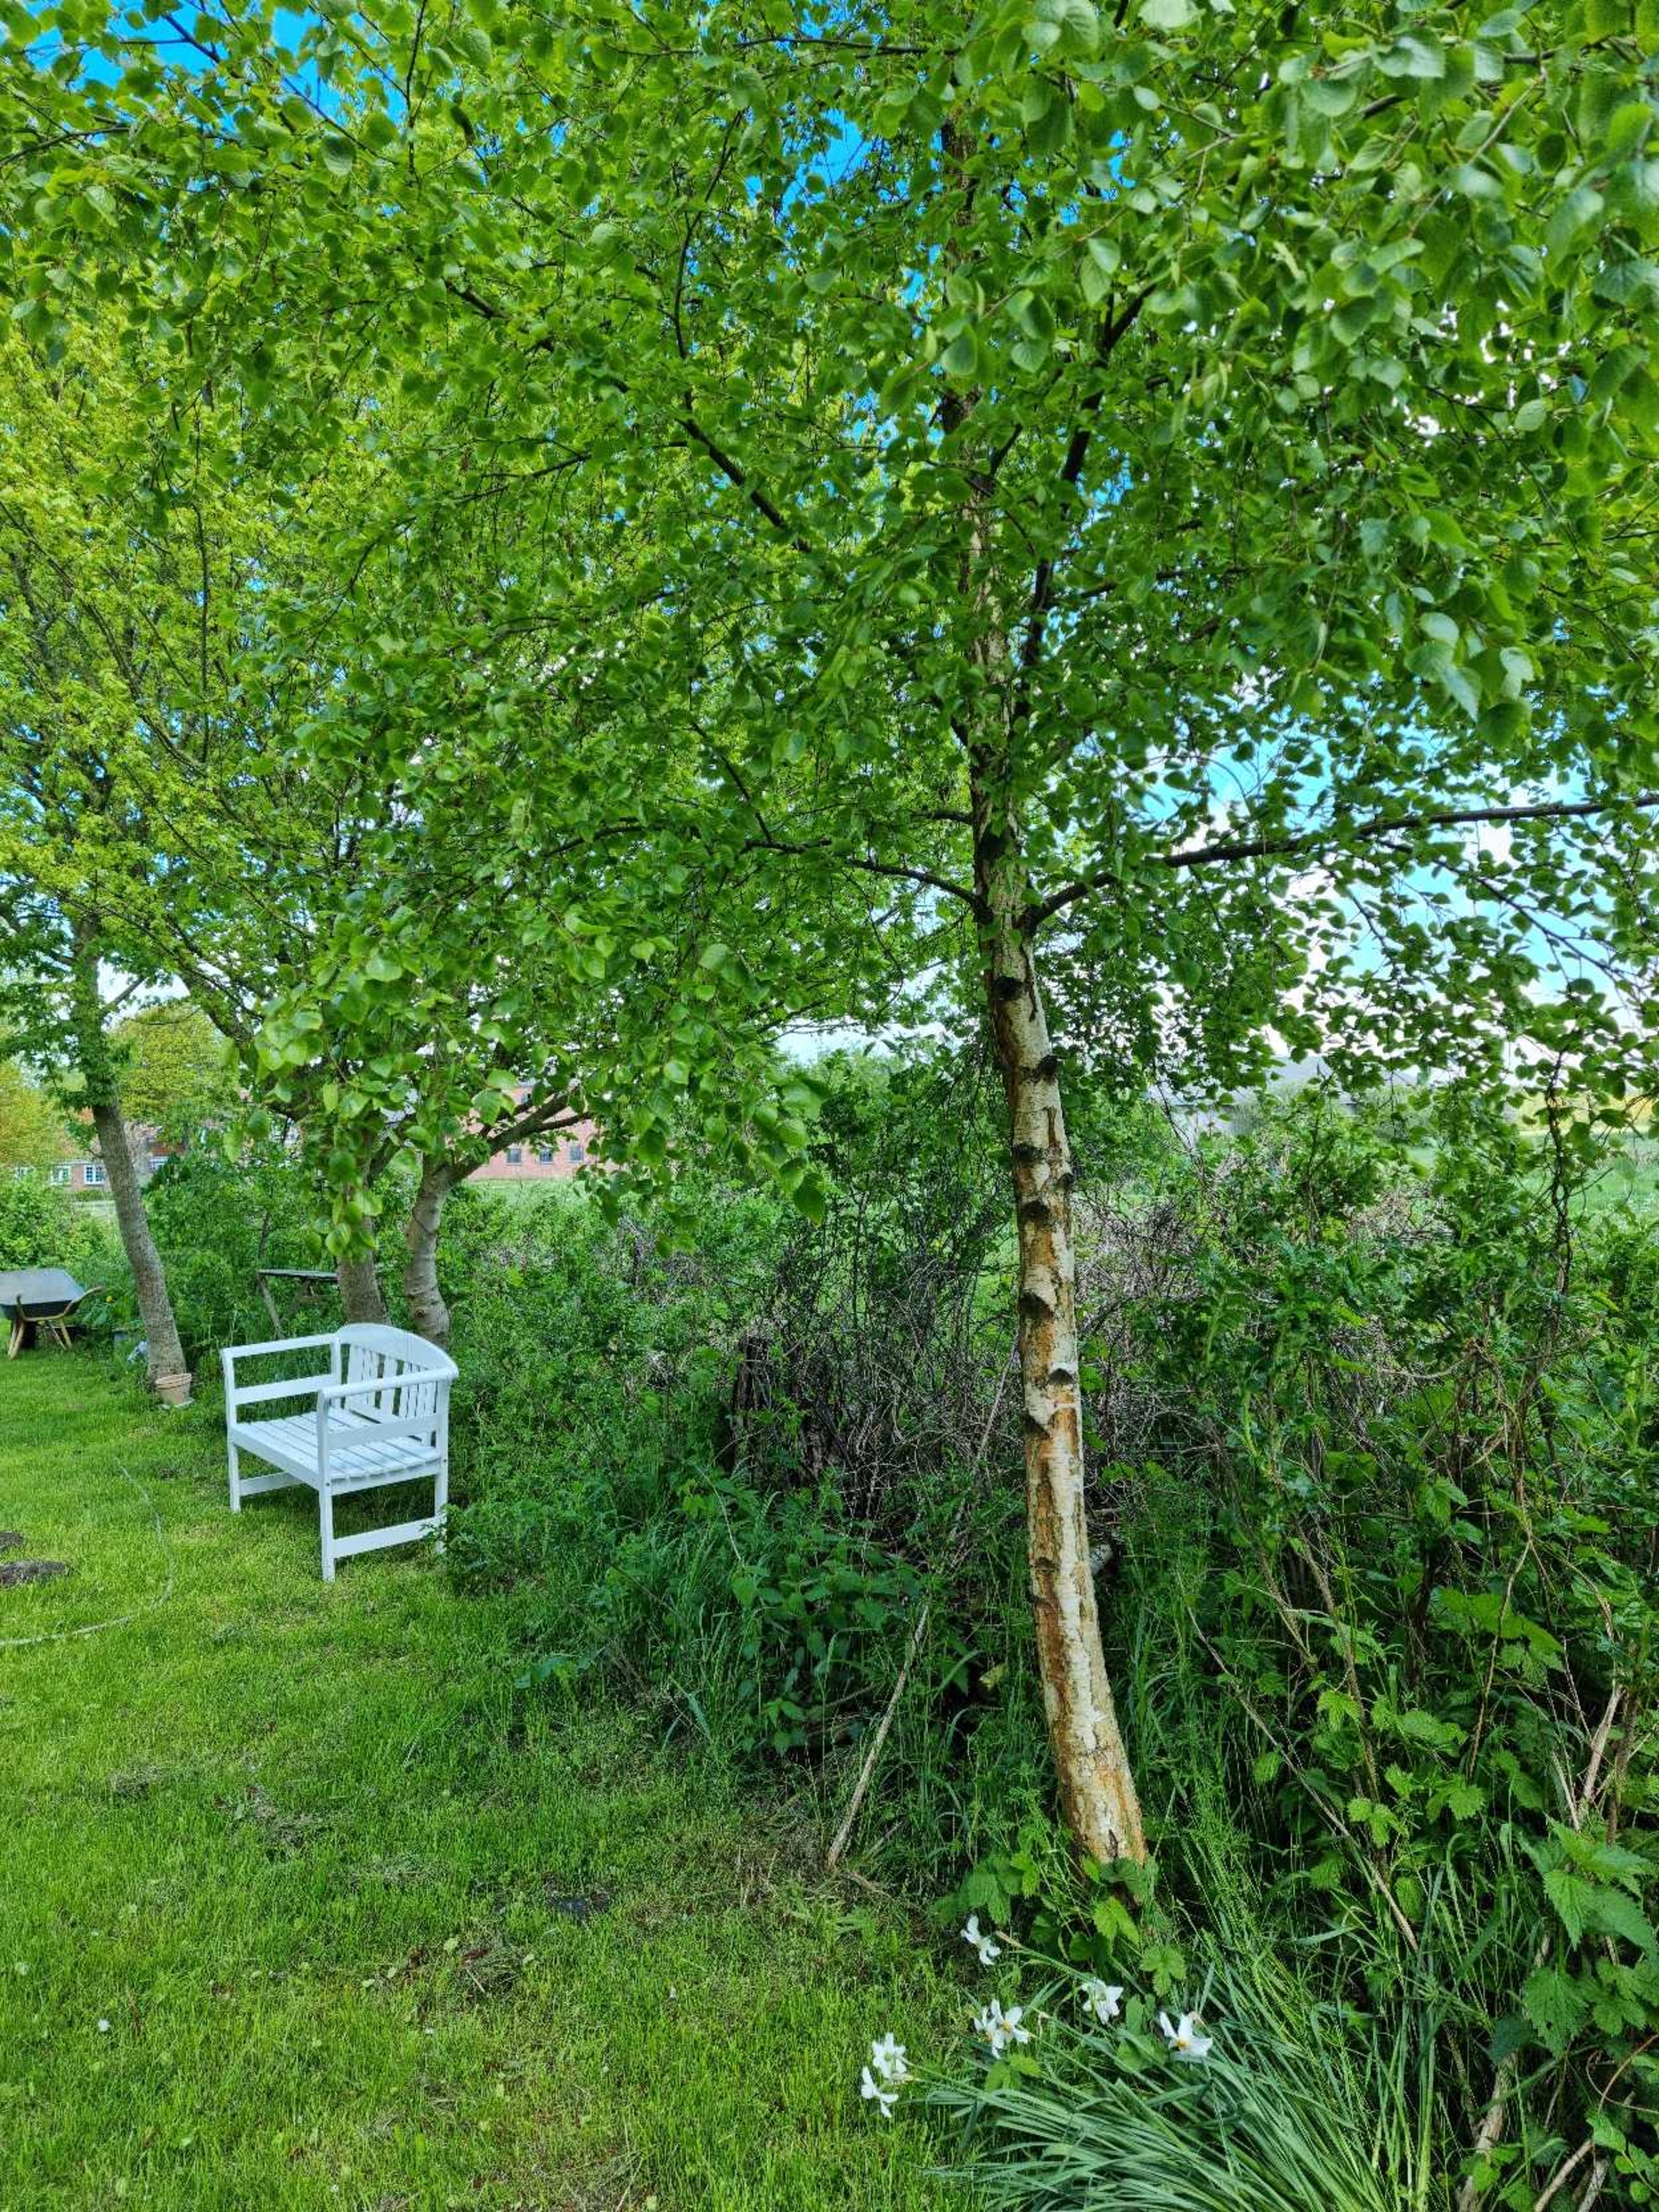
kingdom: Plantae
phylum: Tracheophyta
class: Magnoliopsida
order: Fagales
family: Betulaceae
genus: Betula
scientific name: Betula
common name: Birkeslægten
